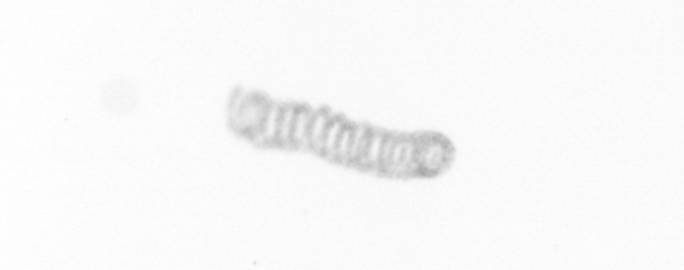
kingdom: Chromista
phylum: Ochrophyta
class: Bacillariophyceae
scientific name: Bacillariophyceae
